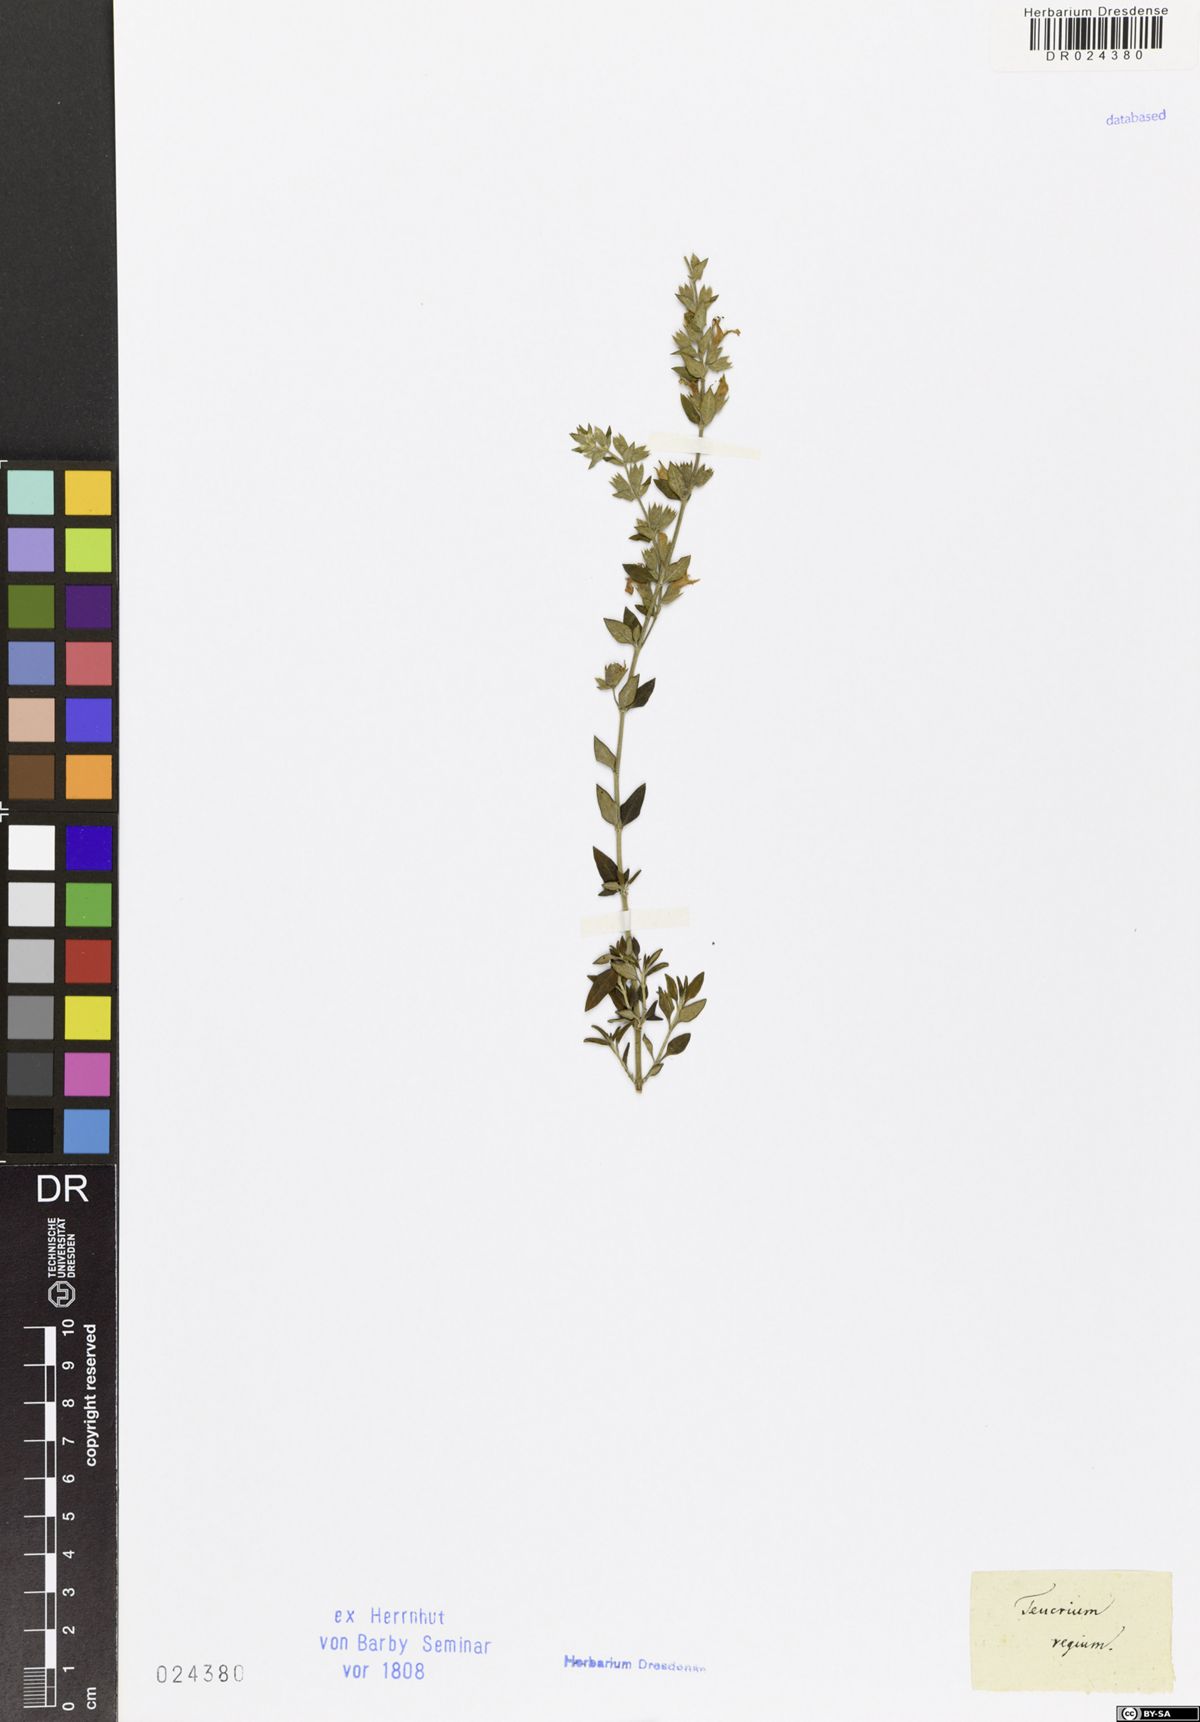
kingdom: Plantae
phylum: Tracheophyta
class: Magnoliopsida
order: Lamiales
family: Lamiaceae
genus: Teucrium
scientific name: Teucrium flavum
